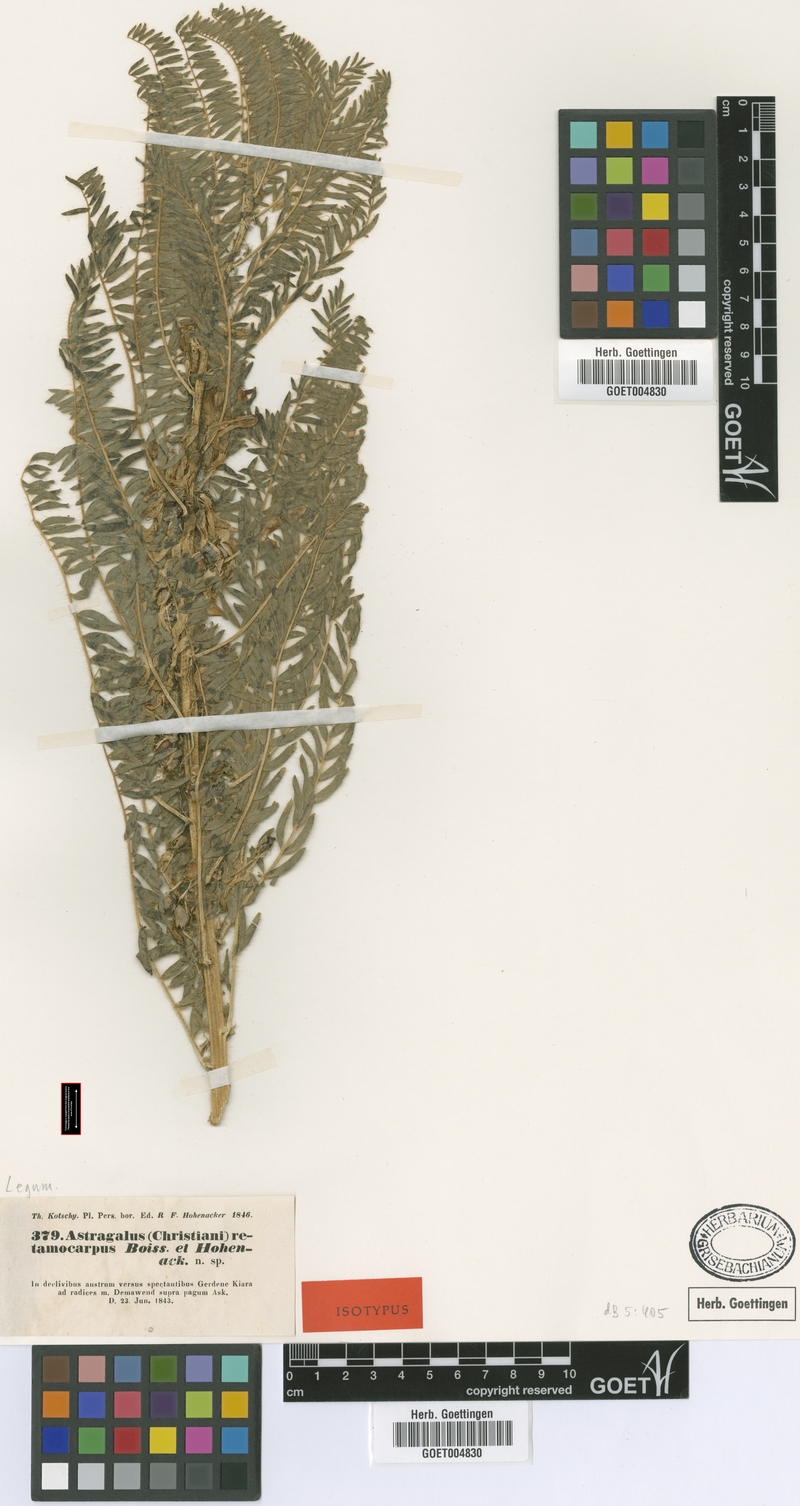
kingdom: Plantae
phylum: Tracheophyta
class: Magnoliopsida
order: Fabales
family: Fabaceae
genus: Astragalus
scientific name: Astragalus retamocarpus
